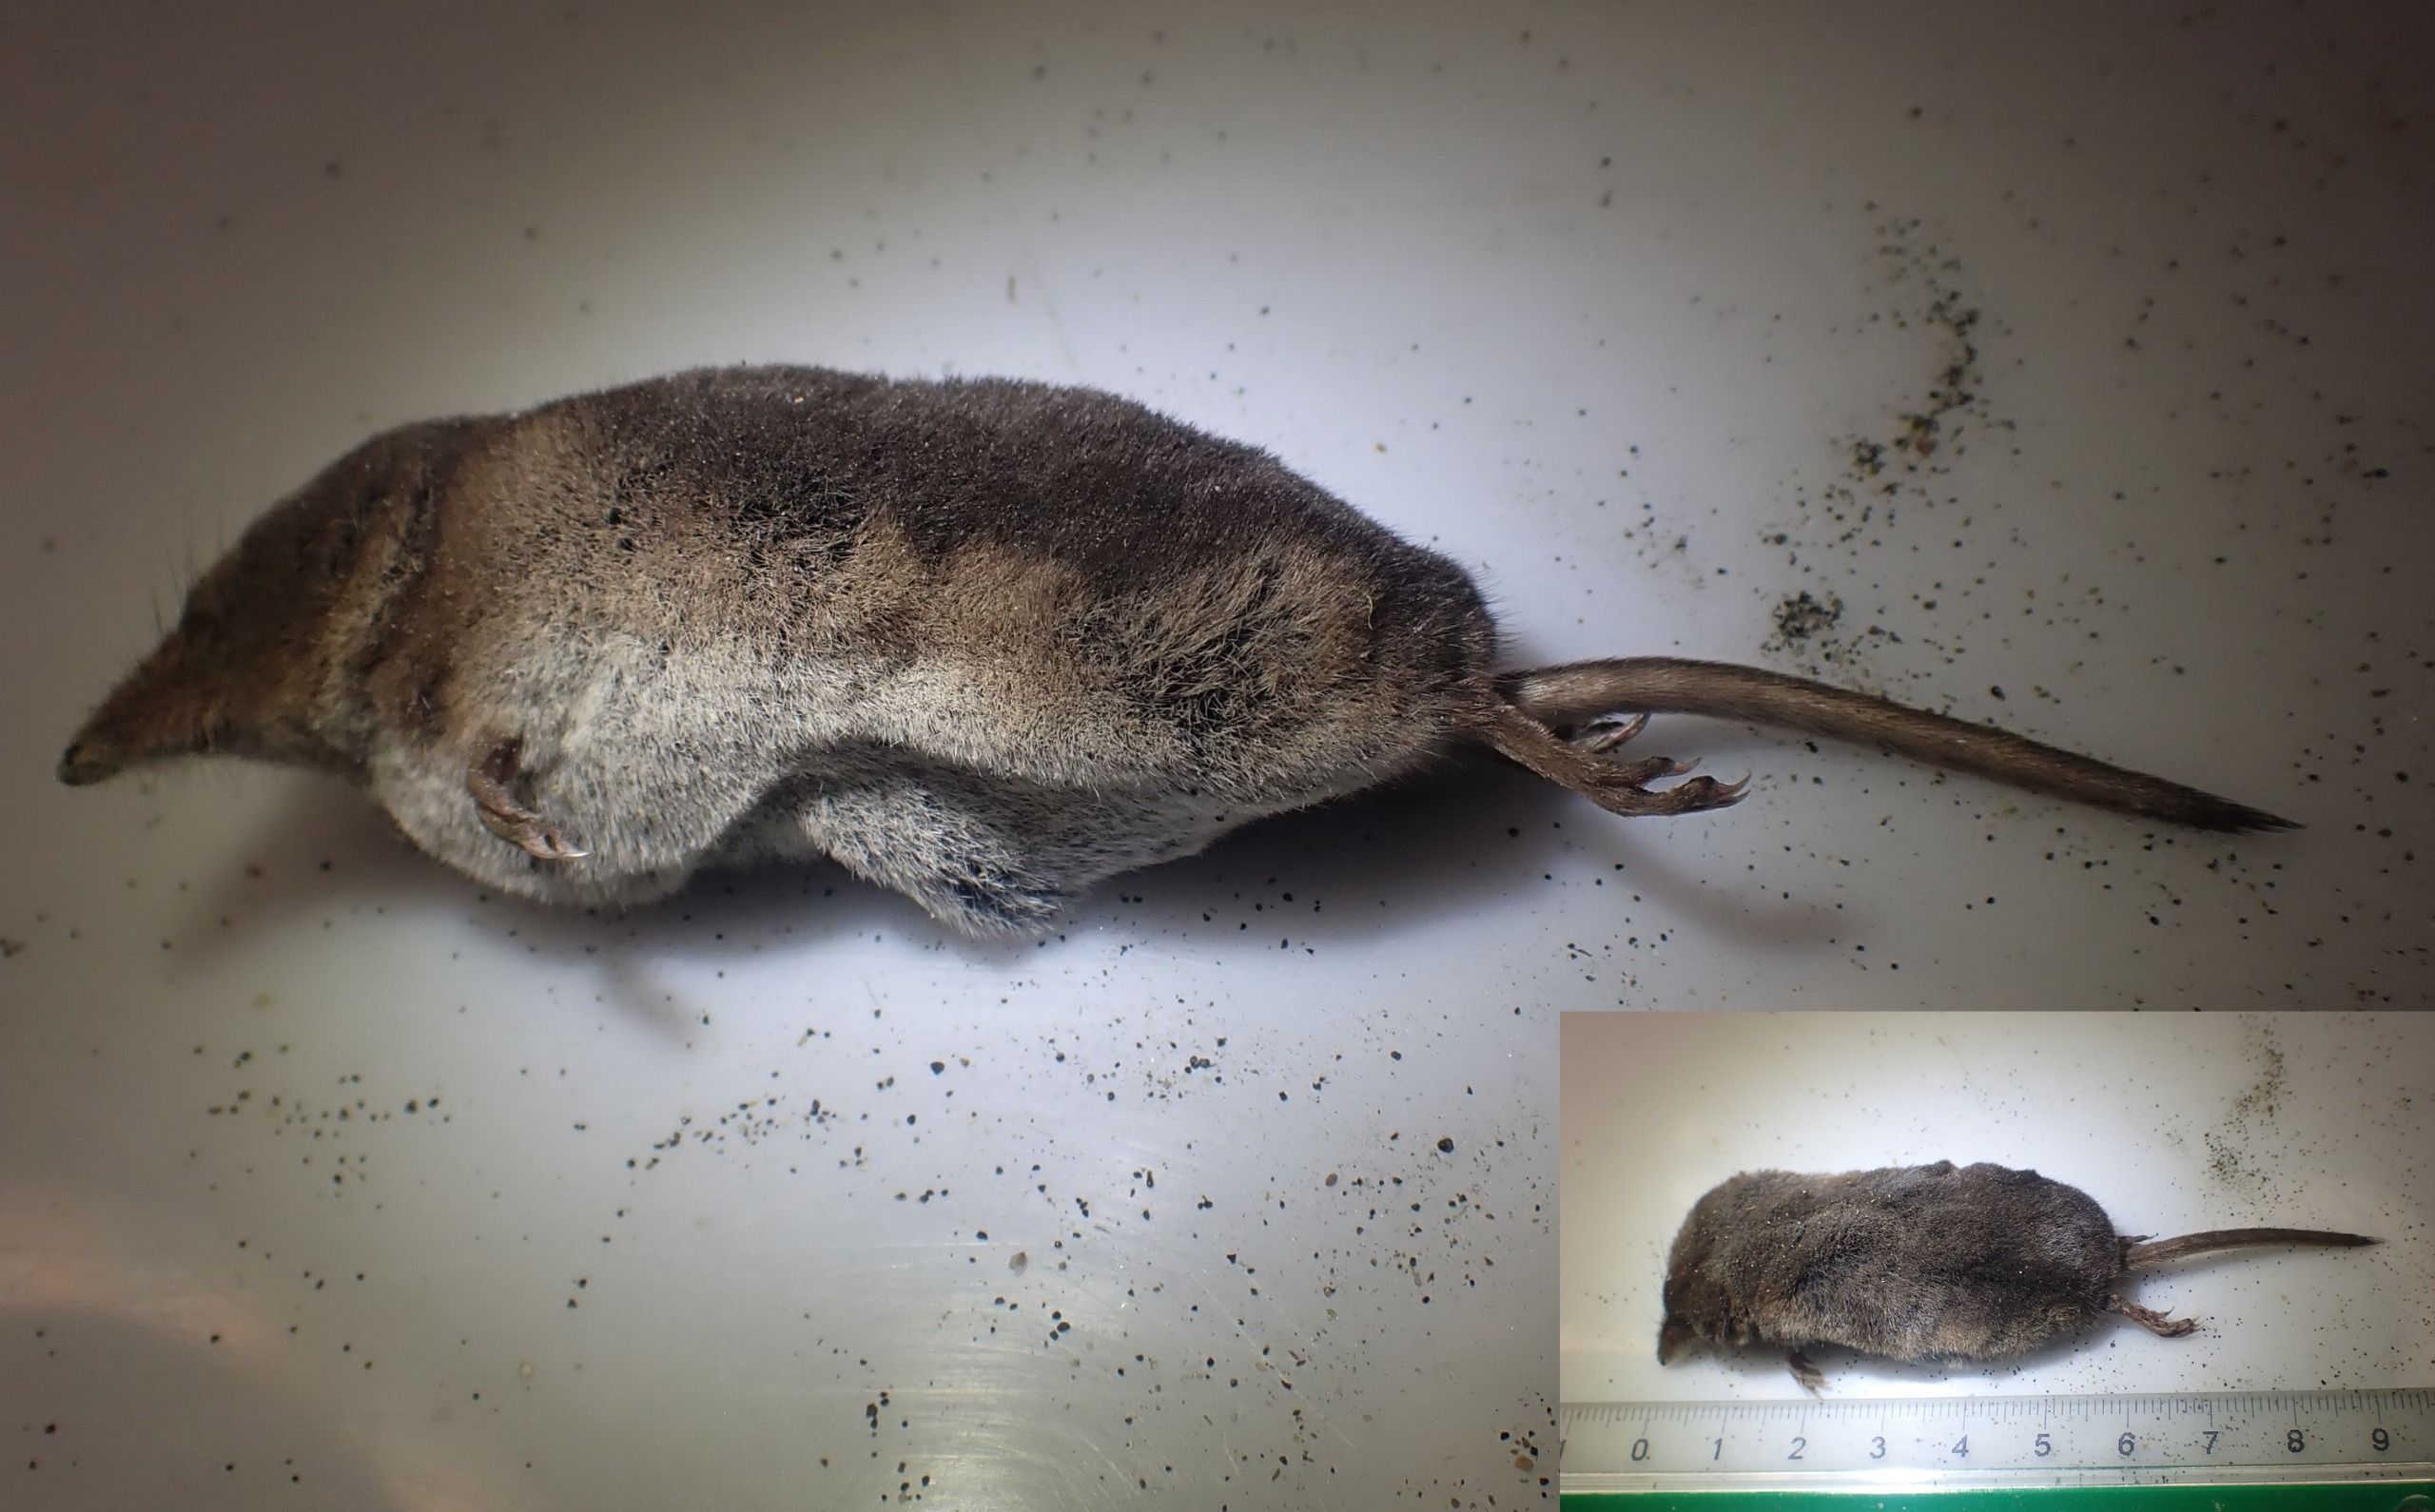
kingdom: Animalia
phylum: Chordata
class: Mammalia
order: Soricomorpha
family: Soricidae
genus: Sorex
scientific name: Sorex araneus
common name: Almindelig spidsmus
